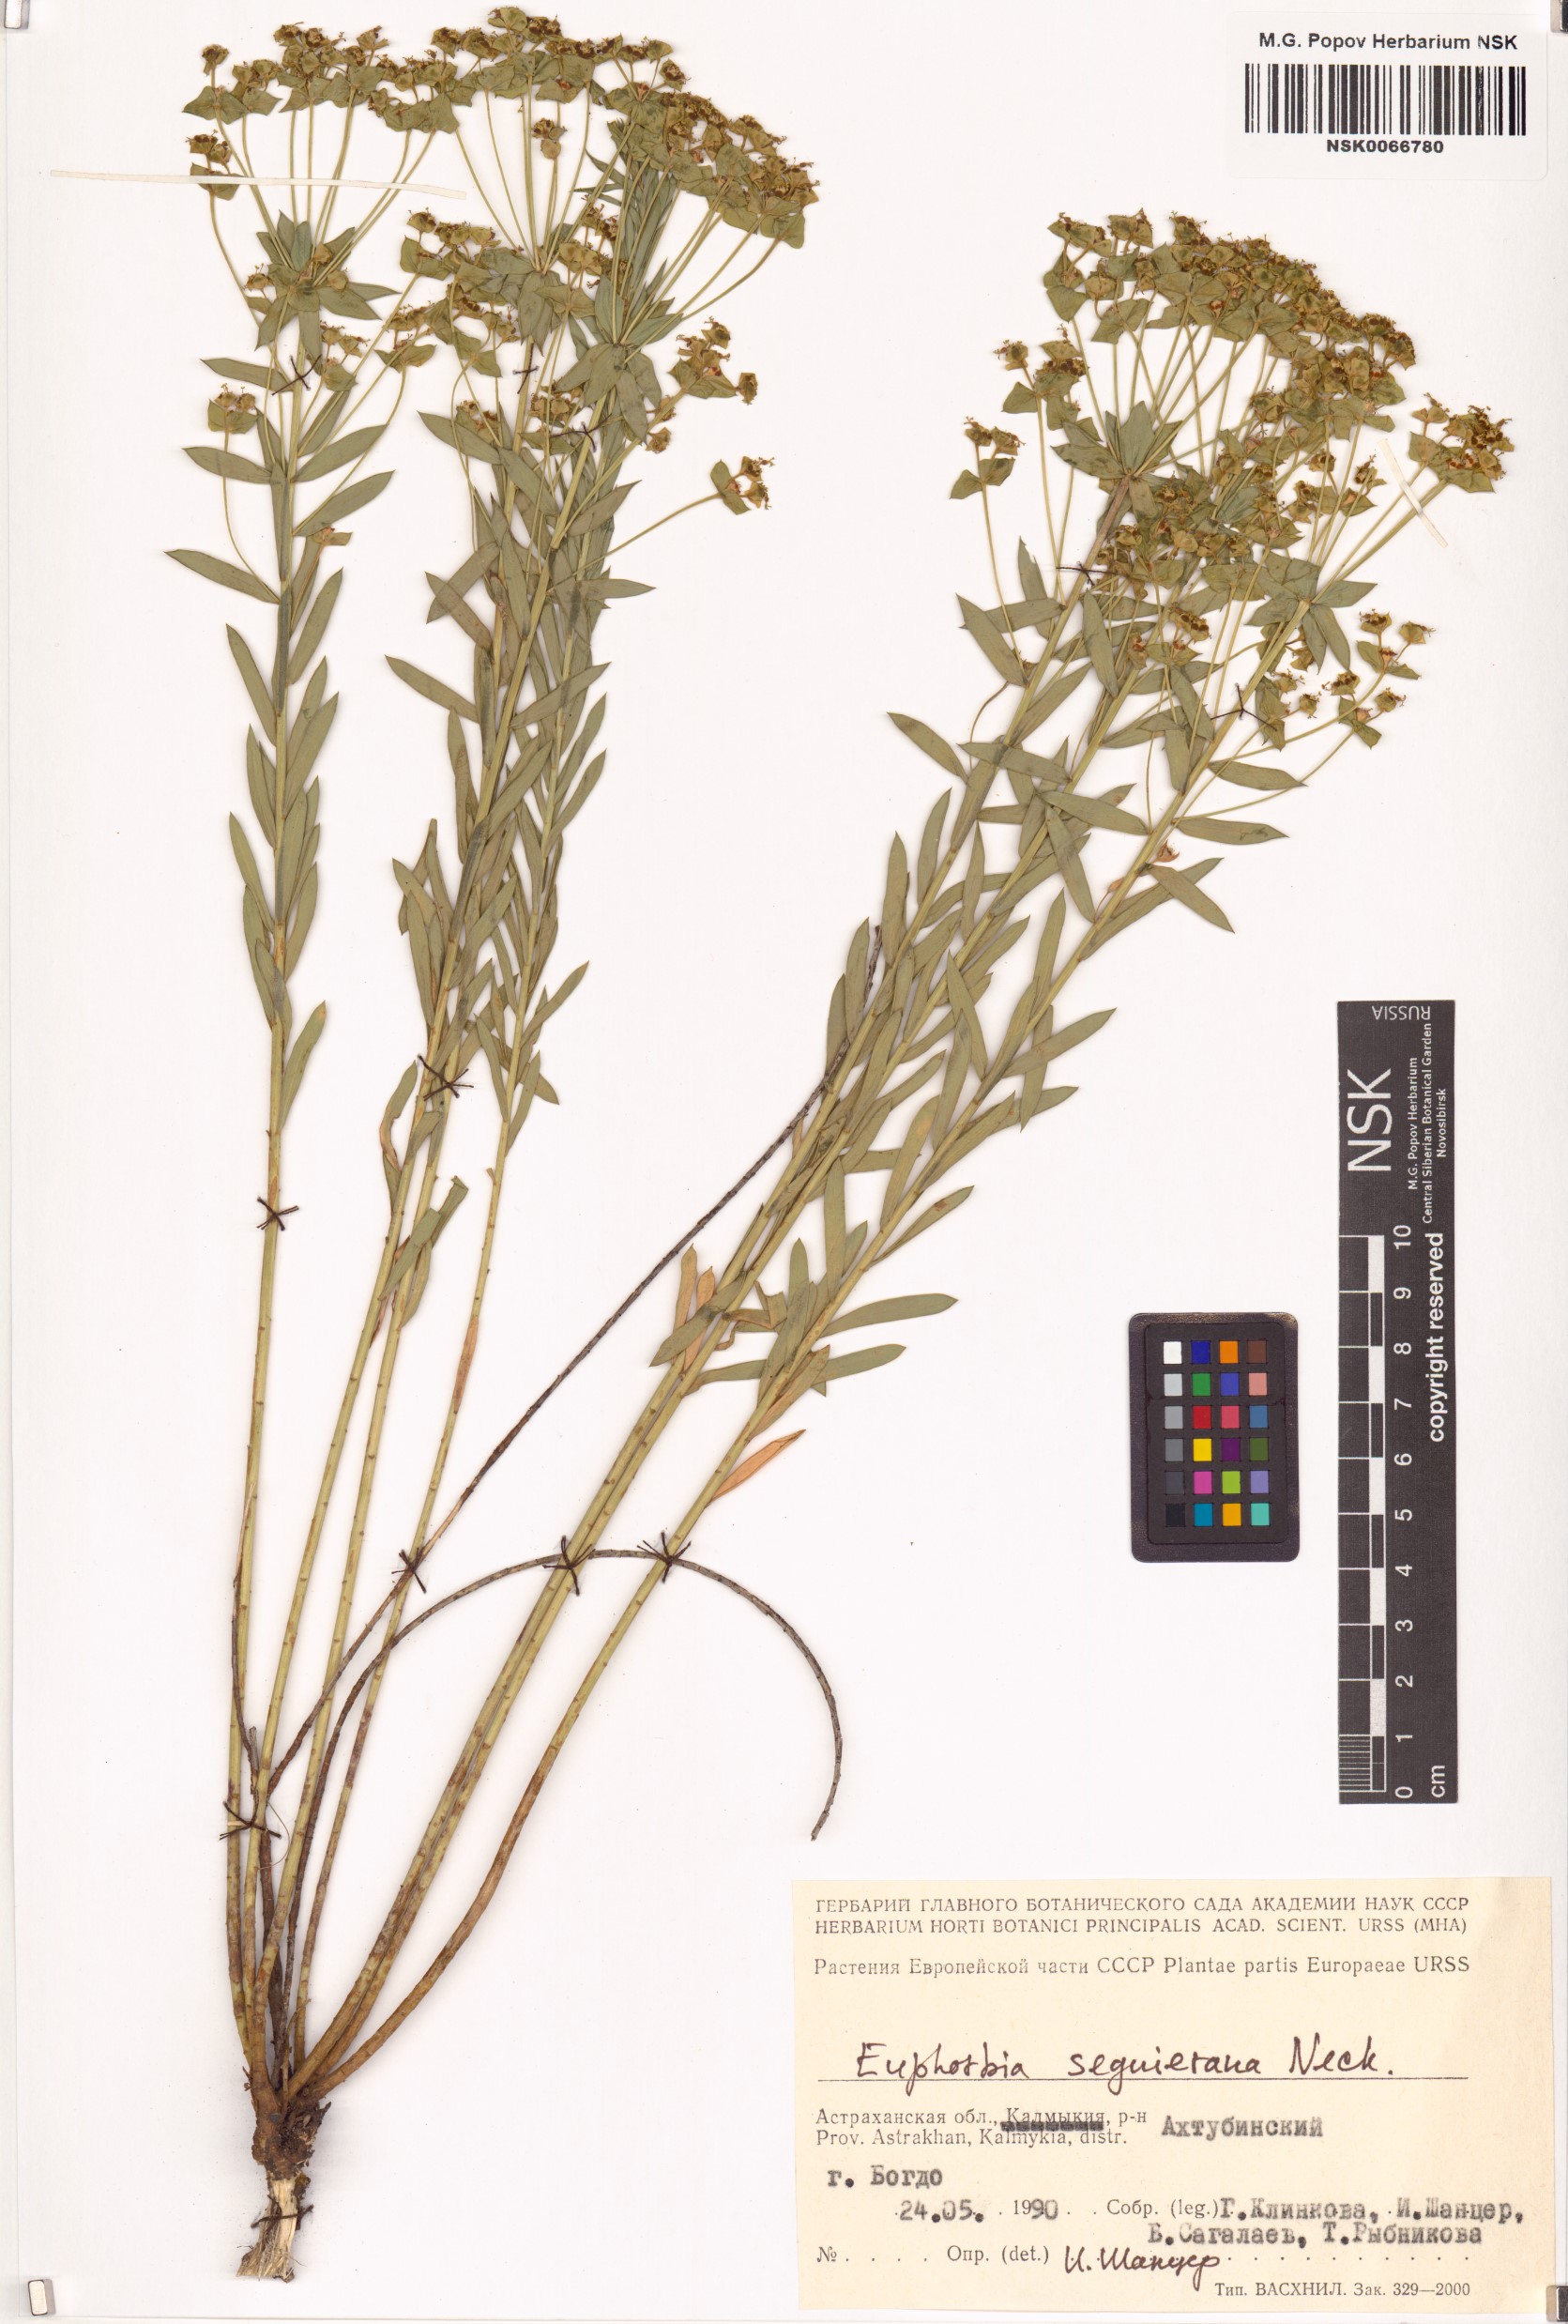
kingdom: Plantae
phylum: Tracheophyta
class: Magnoliopsida
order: Malpighiales
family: Euphorbiaceae
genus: Euphorbia
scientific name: Euphorbia seguieriana
